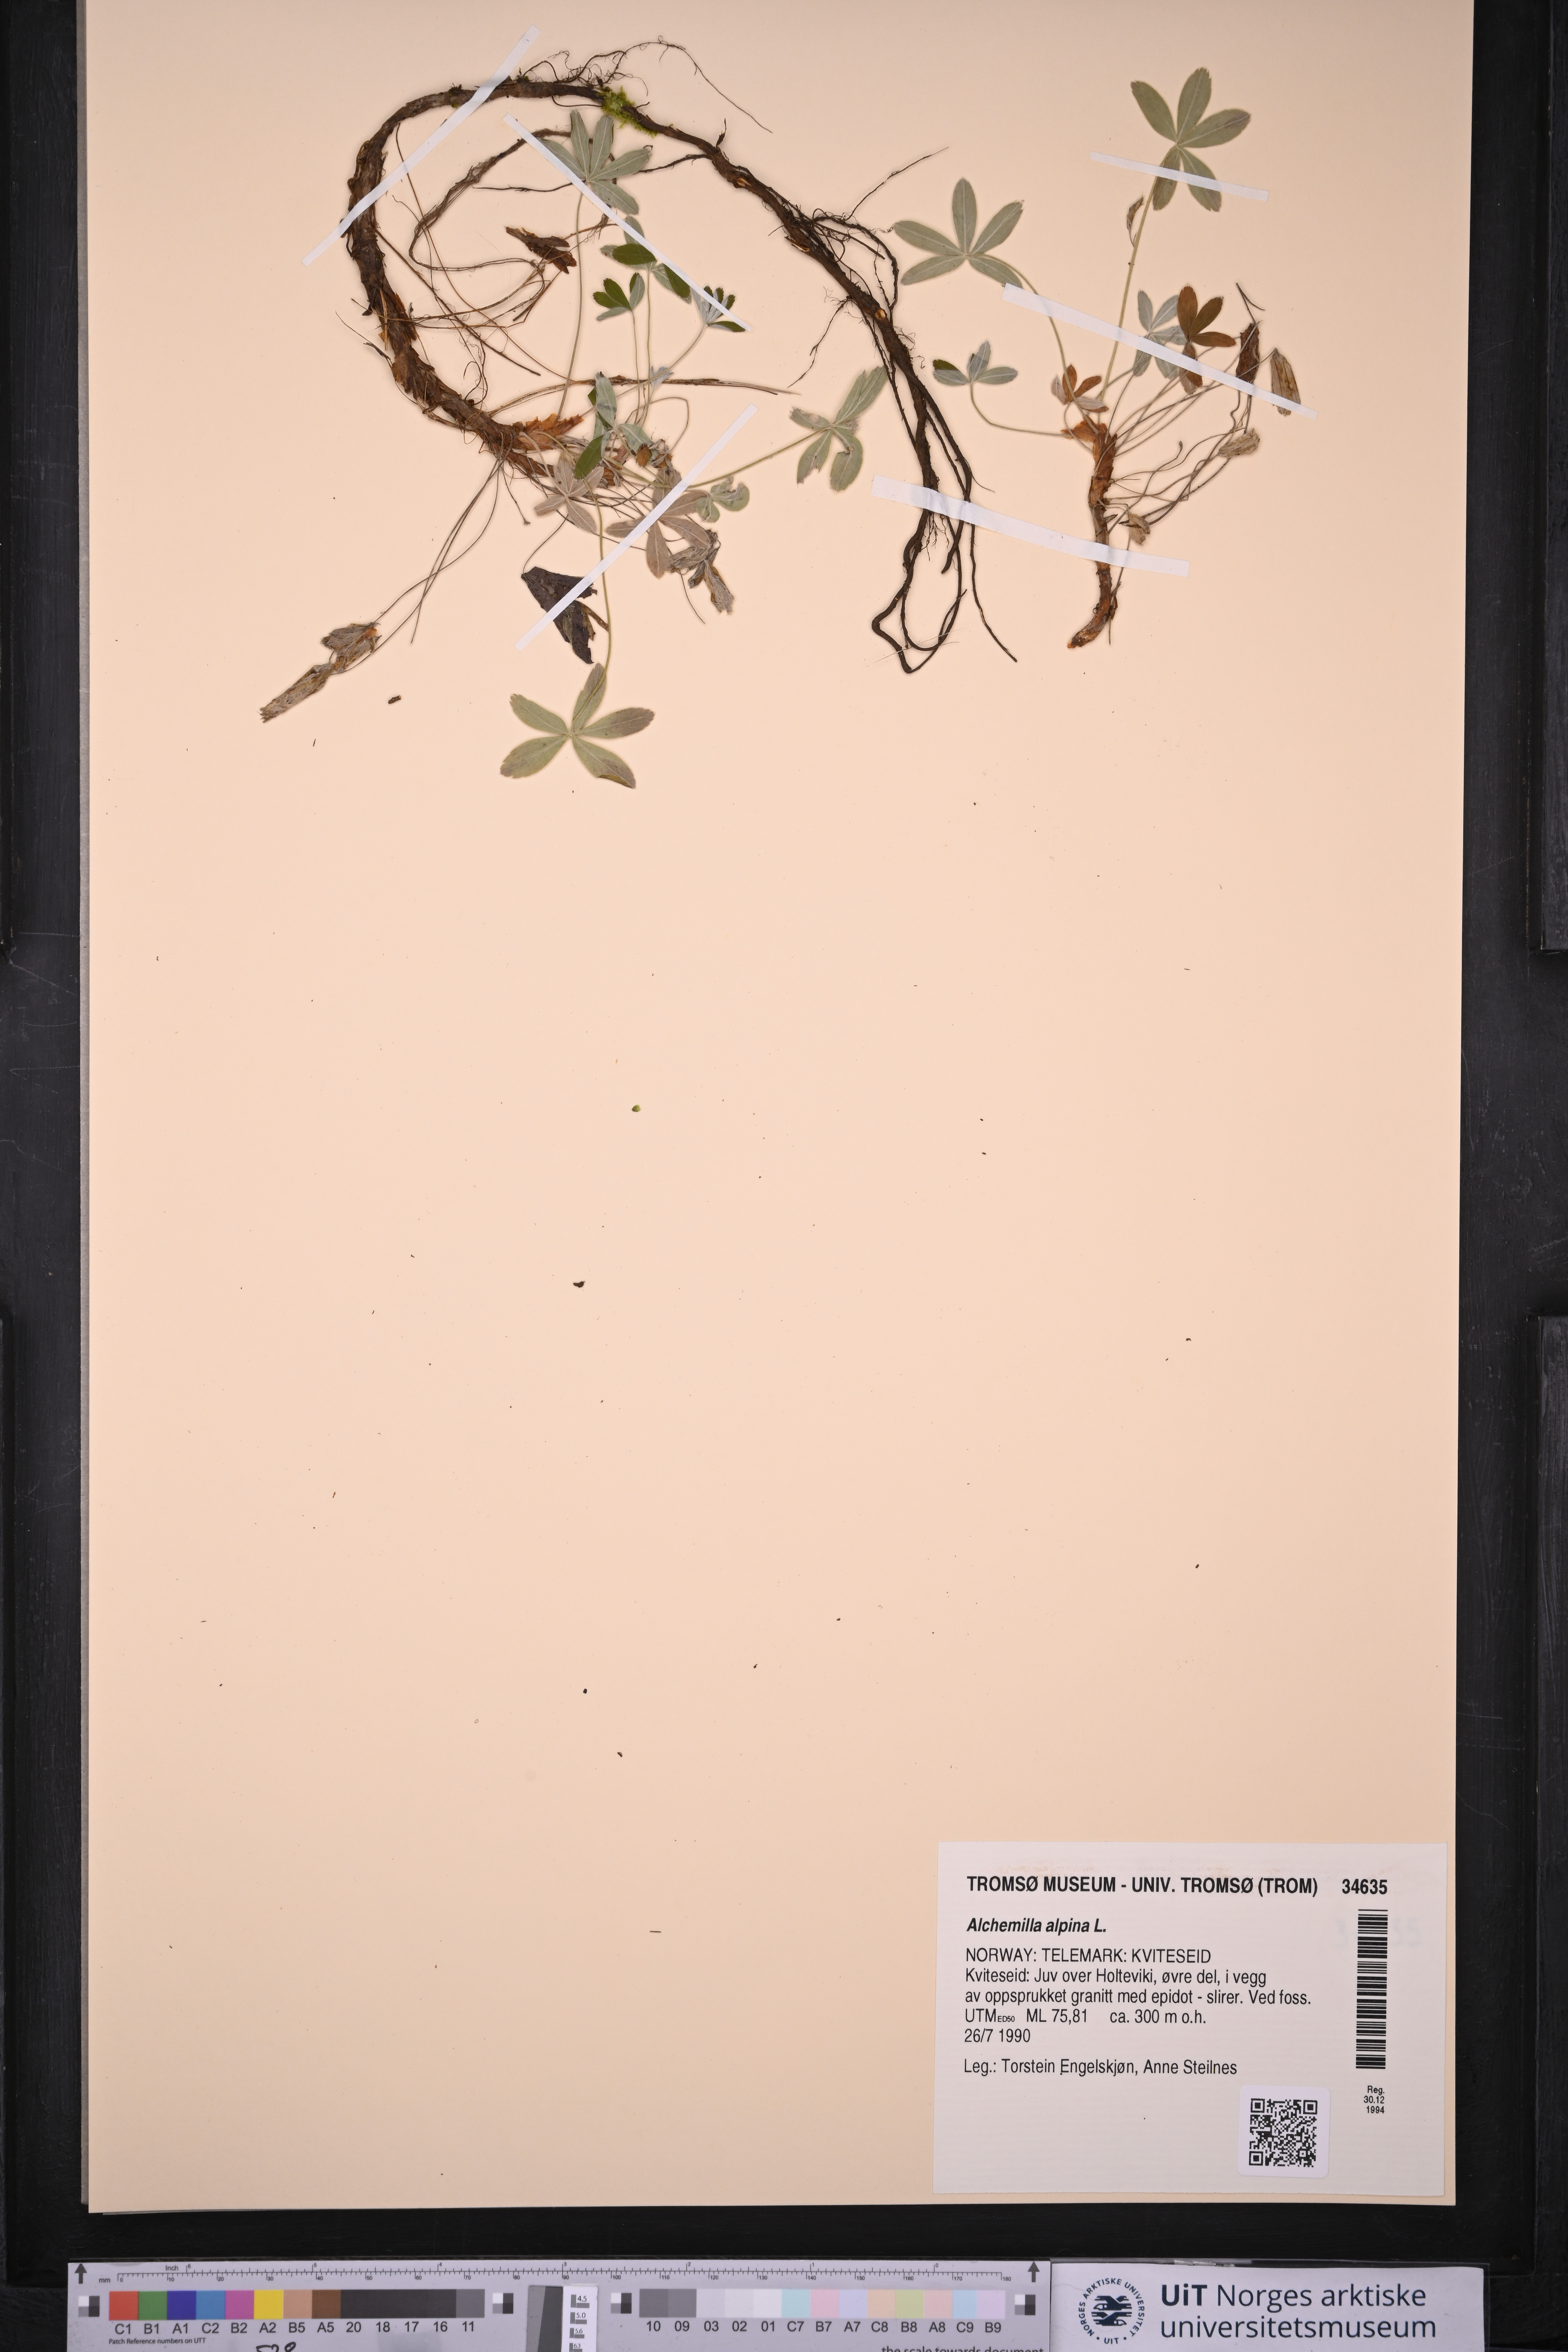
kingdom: Plantae
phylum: Tracheophyta
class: Magnoliopsida
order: Rosales
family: Rosaceae
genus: Alchemilla
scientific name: Alchemilla alpina
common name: Alpine lady's-mantle
